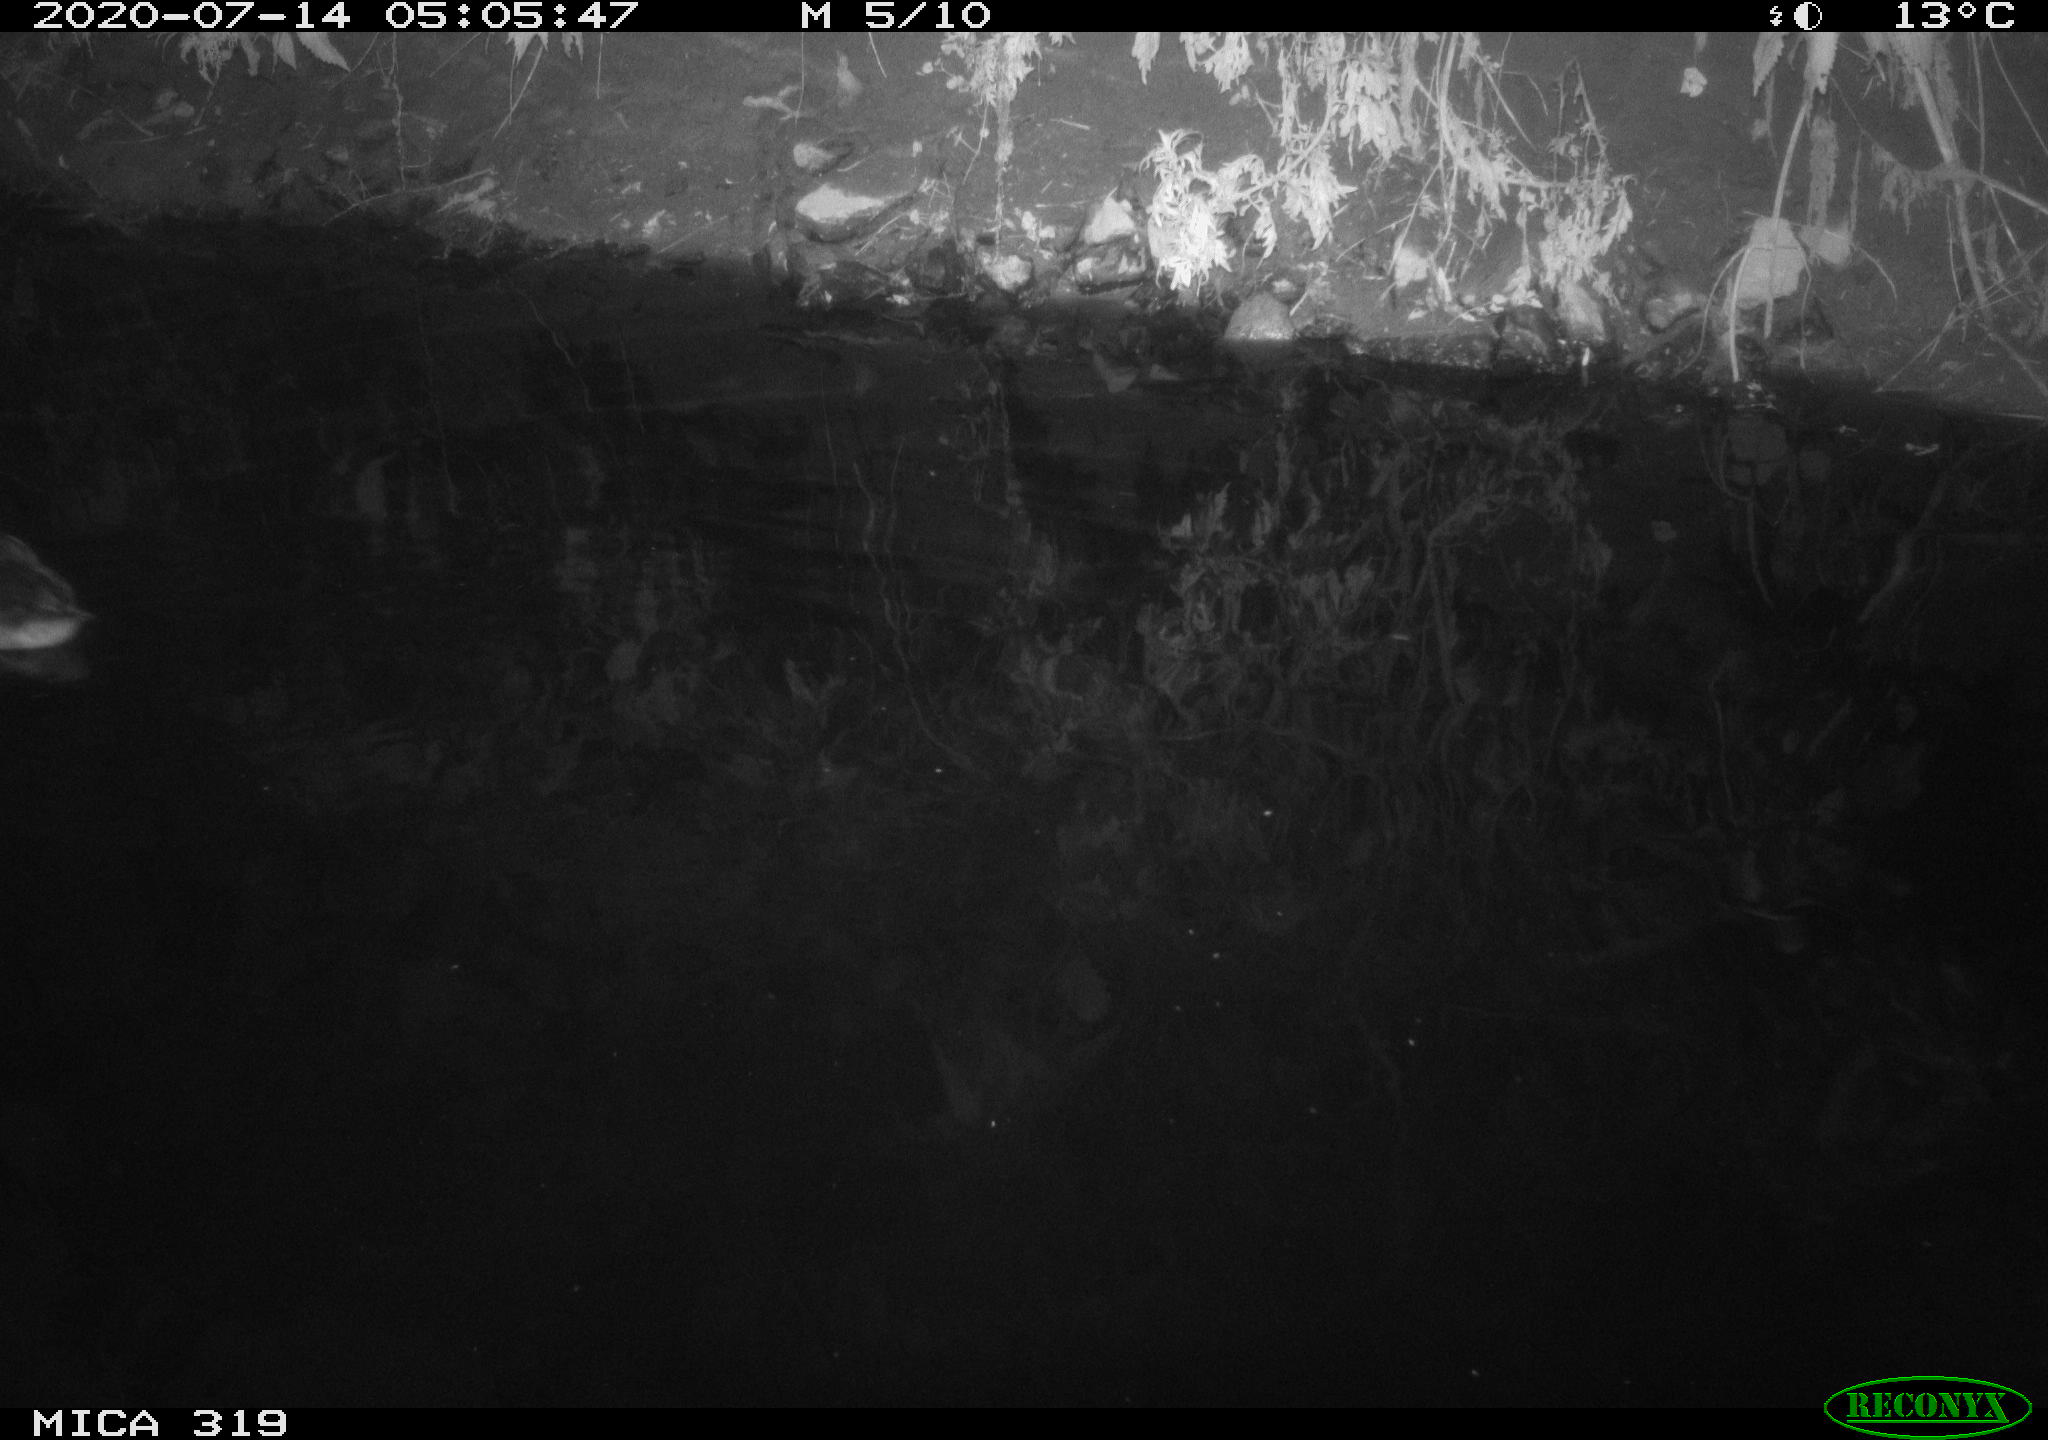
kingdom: Animalia
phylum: Chordata
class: Aves
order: Anseriformes
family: Anatidae
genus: Anas
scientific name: Anas platyrhynchos
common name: Mallard
